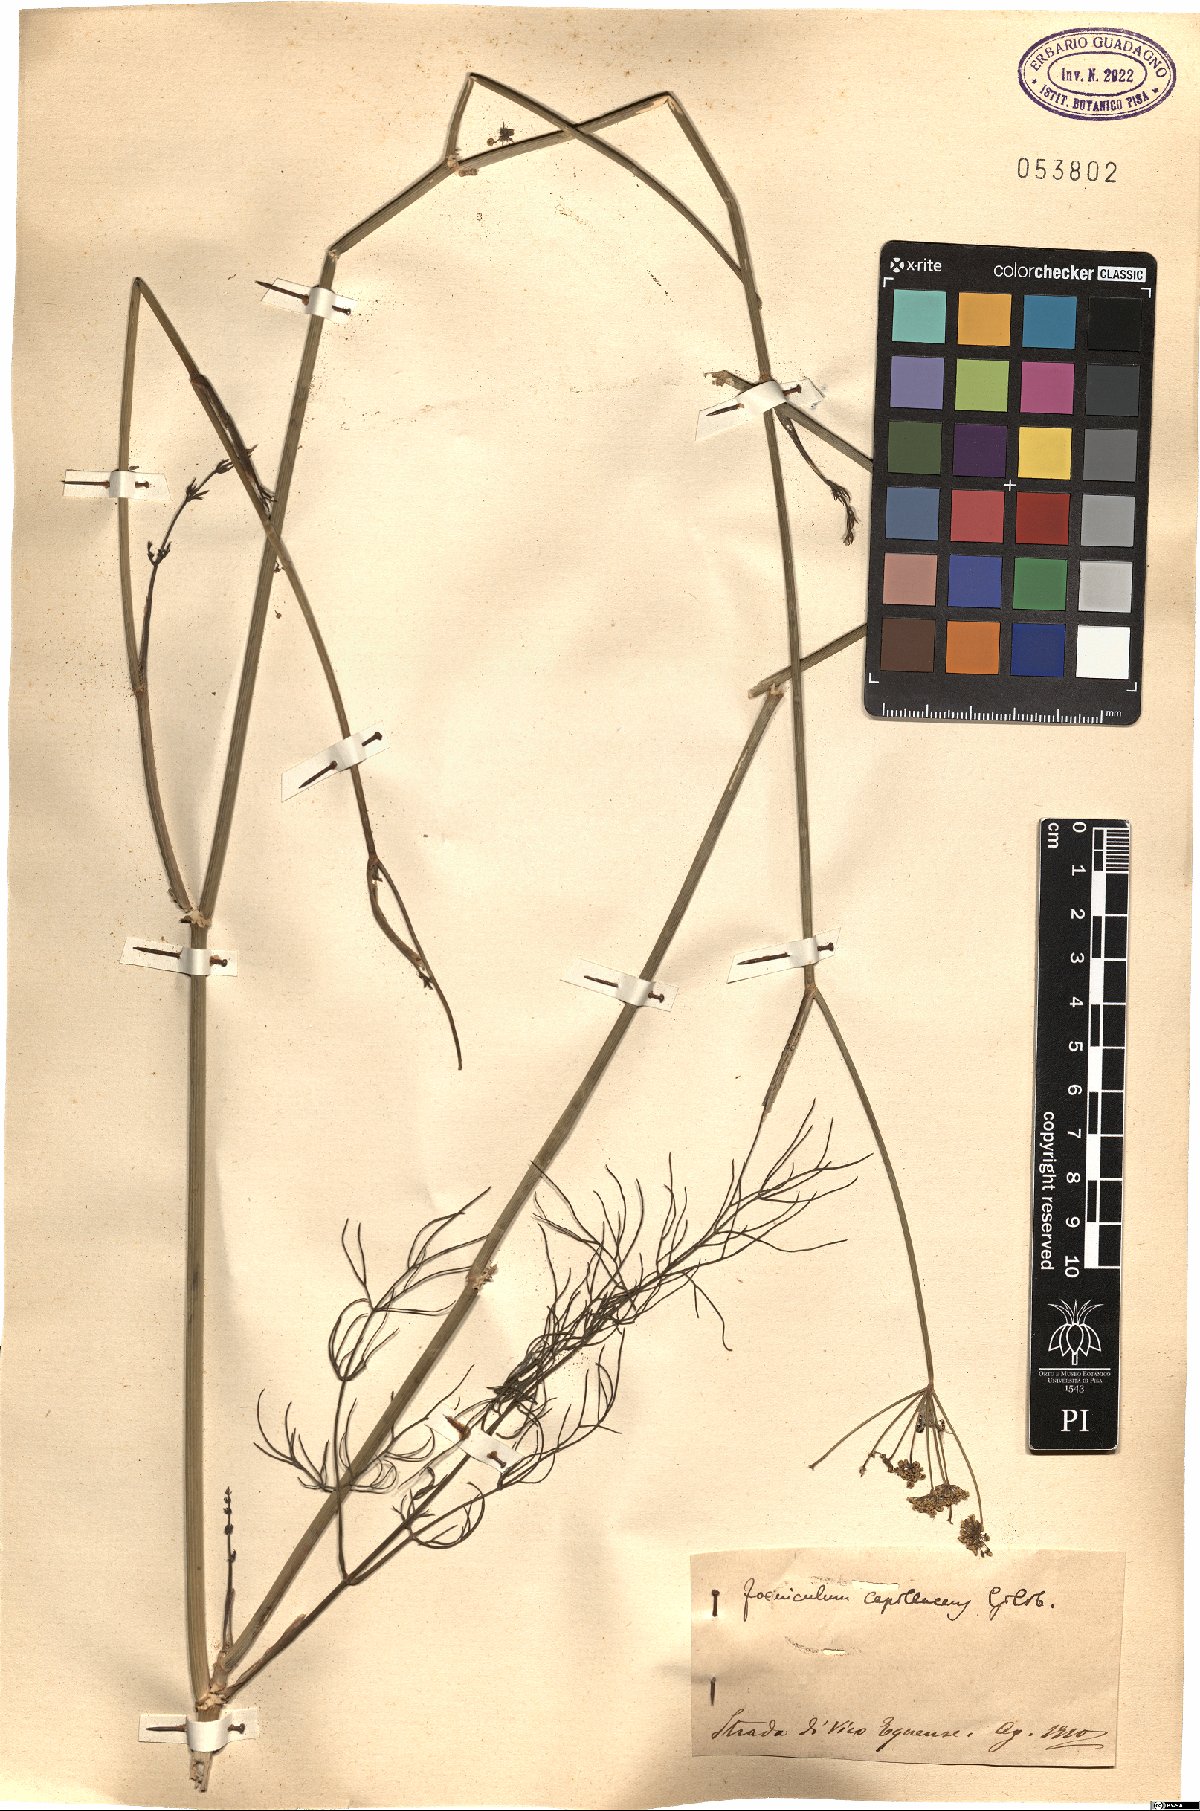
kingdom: Plantae
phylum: Tracheophyta
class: Magnoliopsida
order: Apiales
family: Apiaceae
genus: Foeniculum
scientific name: Foeniculum vulgare
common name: Fennel
